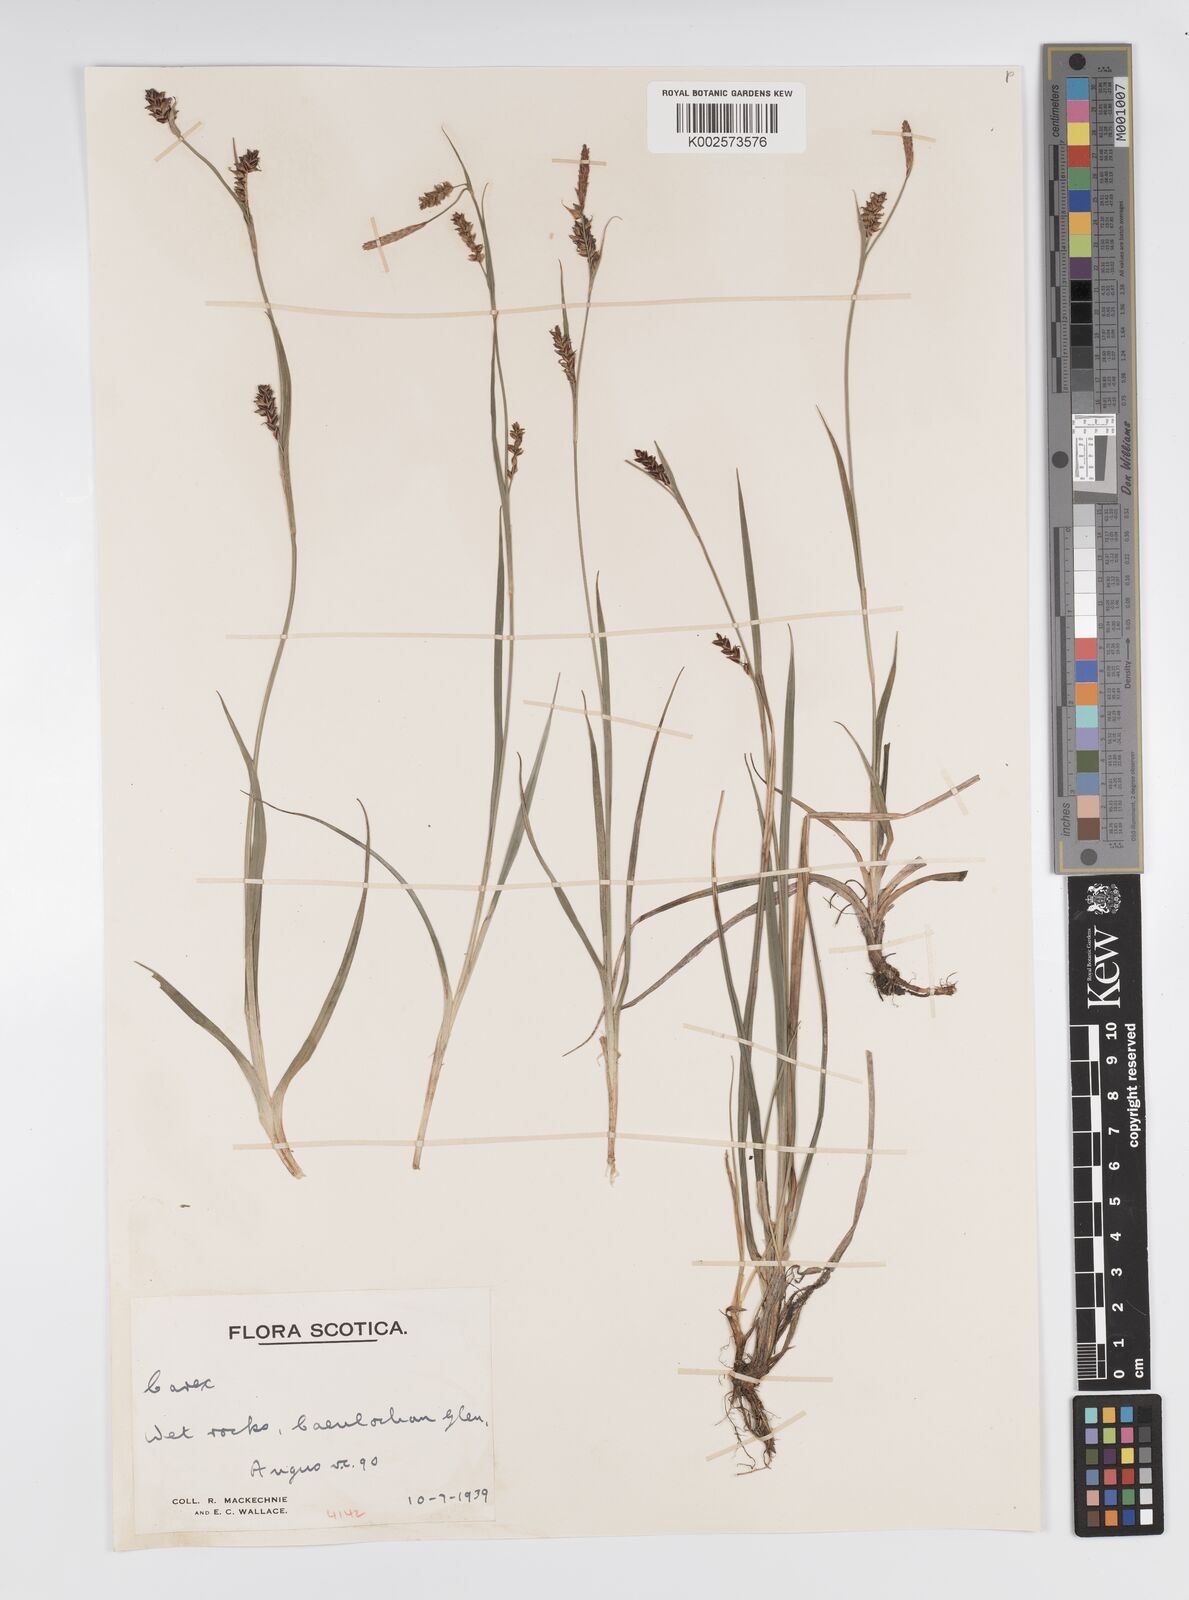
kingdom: Plantae
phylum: Tracheophyta
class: Liliopsida
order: Poales
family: Cyperaceae
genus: Carex
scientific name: Carex panicea
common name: Carnation sedge
